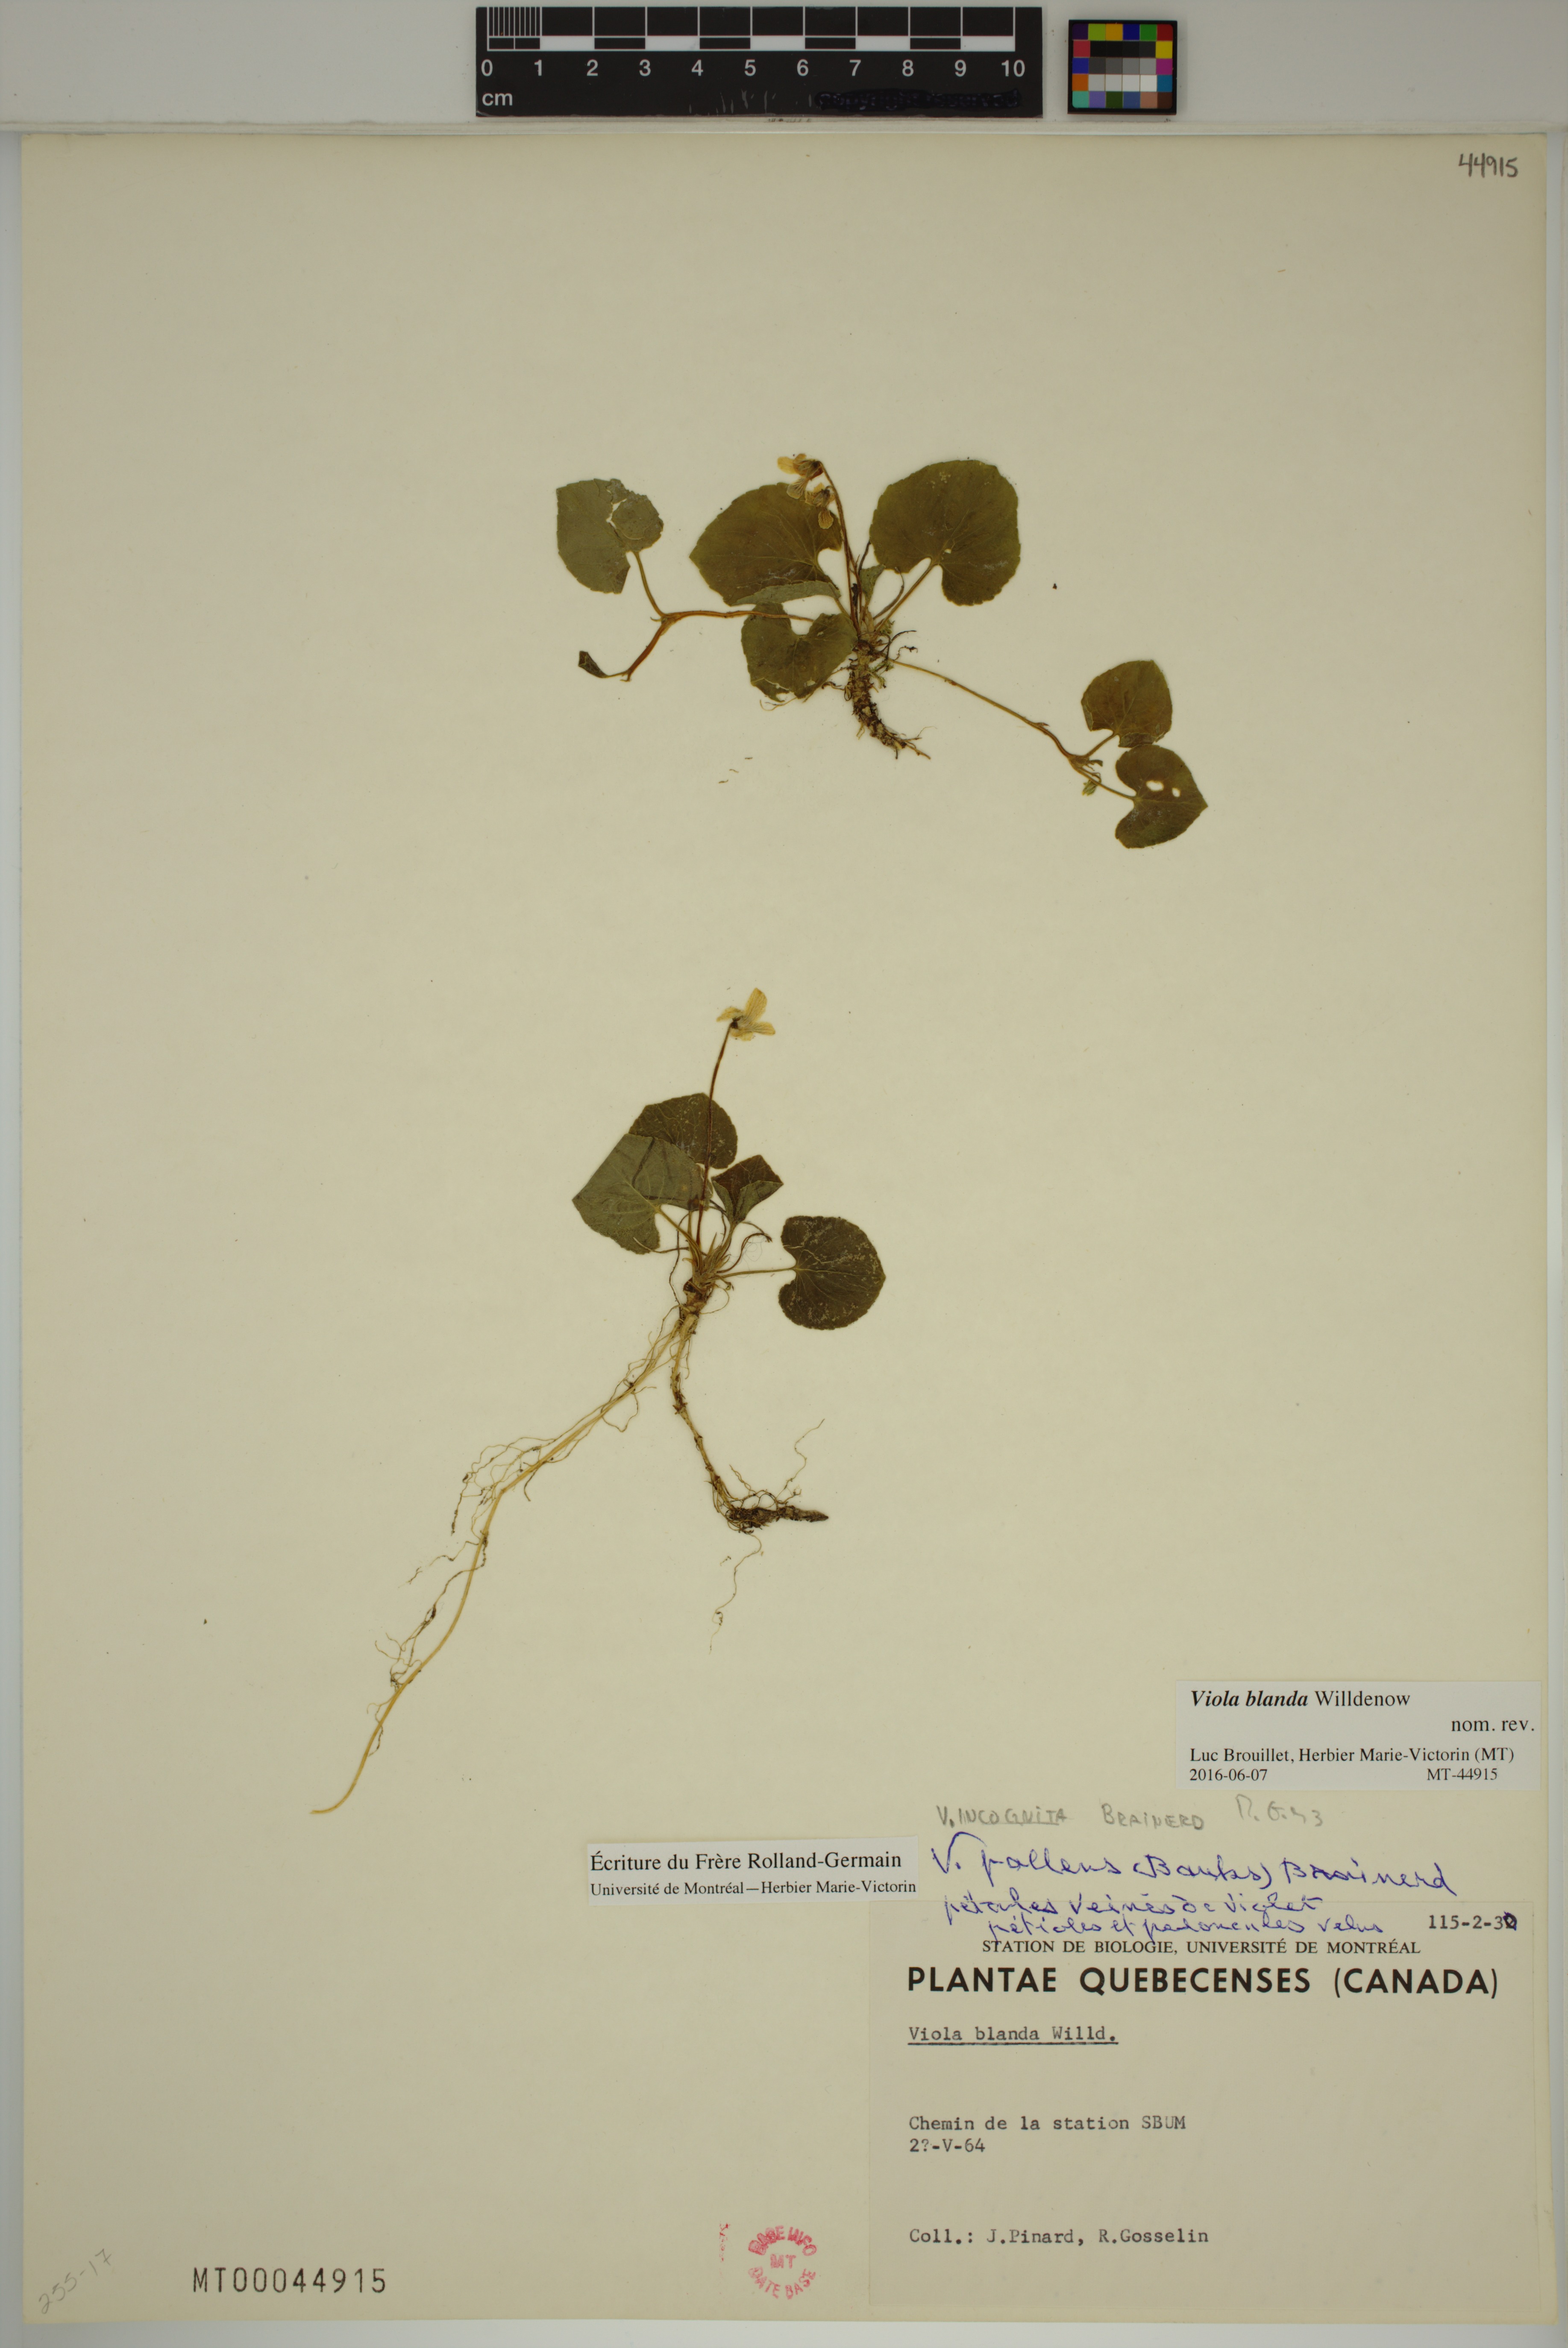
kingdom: Plantae
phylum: Tracheophyta
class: Magnoliopsida
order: Malpighiales
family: Violaceae
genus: Viola
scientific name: Viola blanda
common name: Sweet white violet
